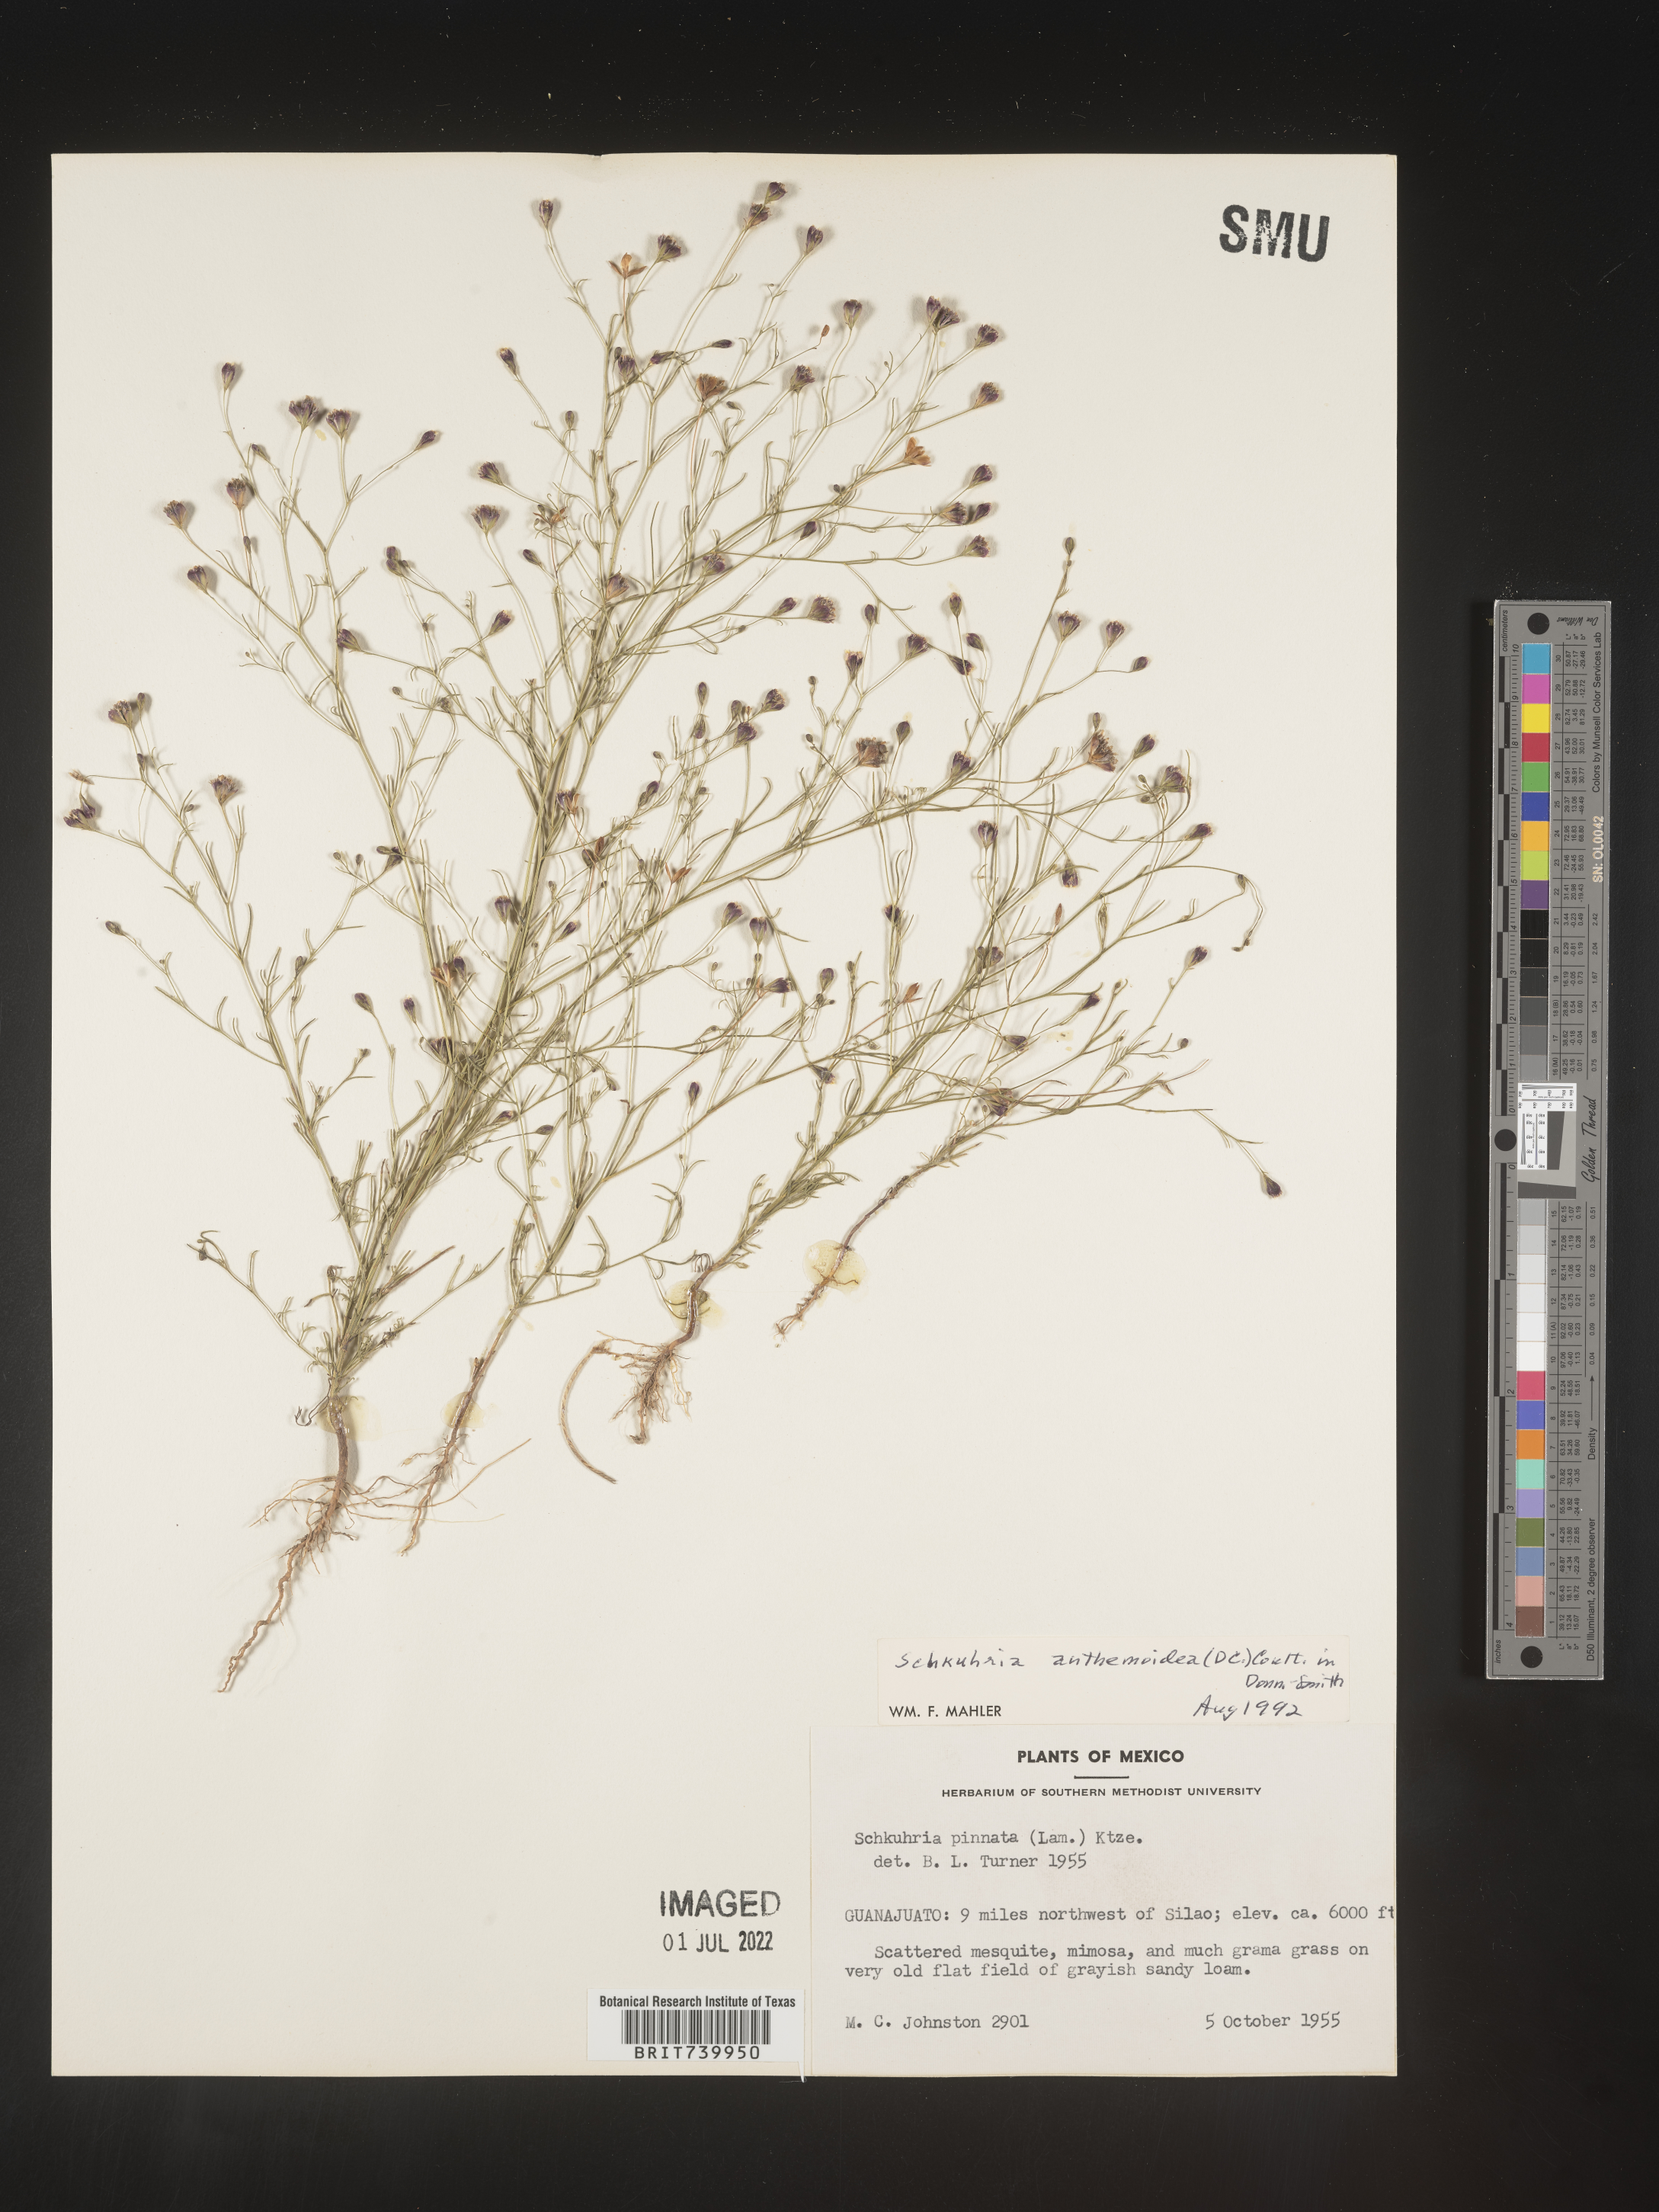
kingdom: Plantae
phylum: Tracheophyta
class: Magnoliopsida
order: Asterales
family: Asteraceae
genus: Schkuhria
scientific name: Schkuhria
